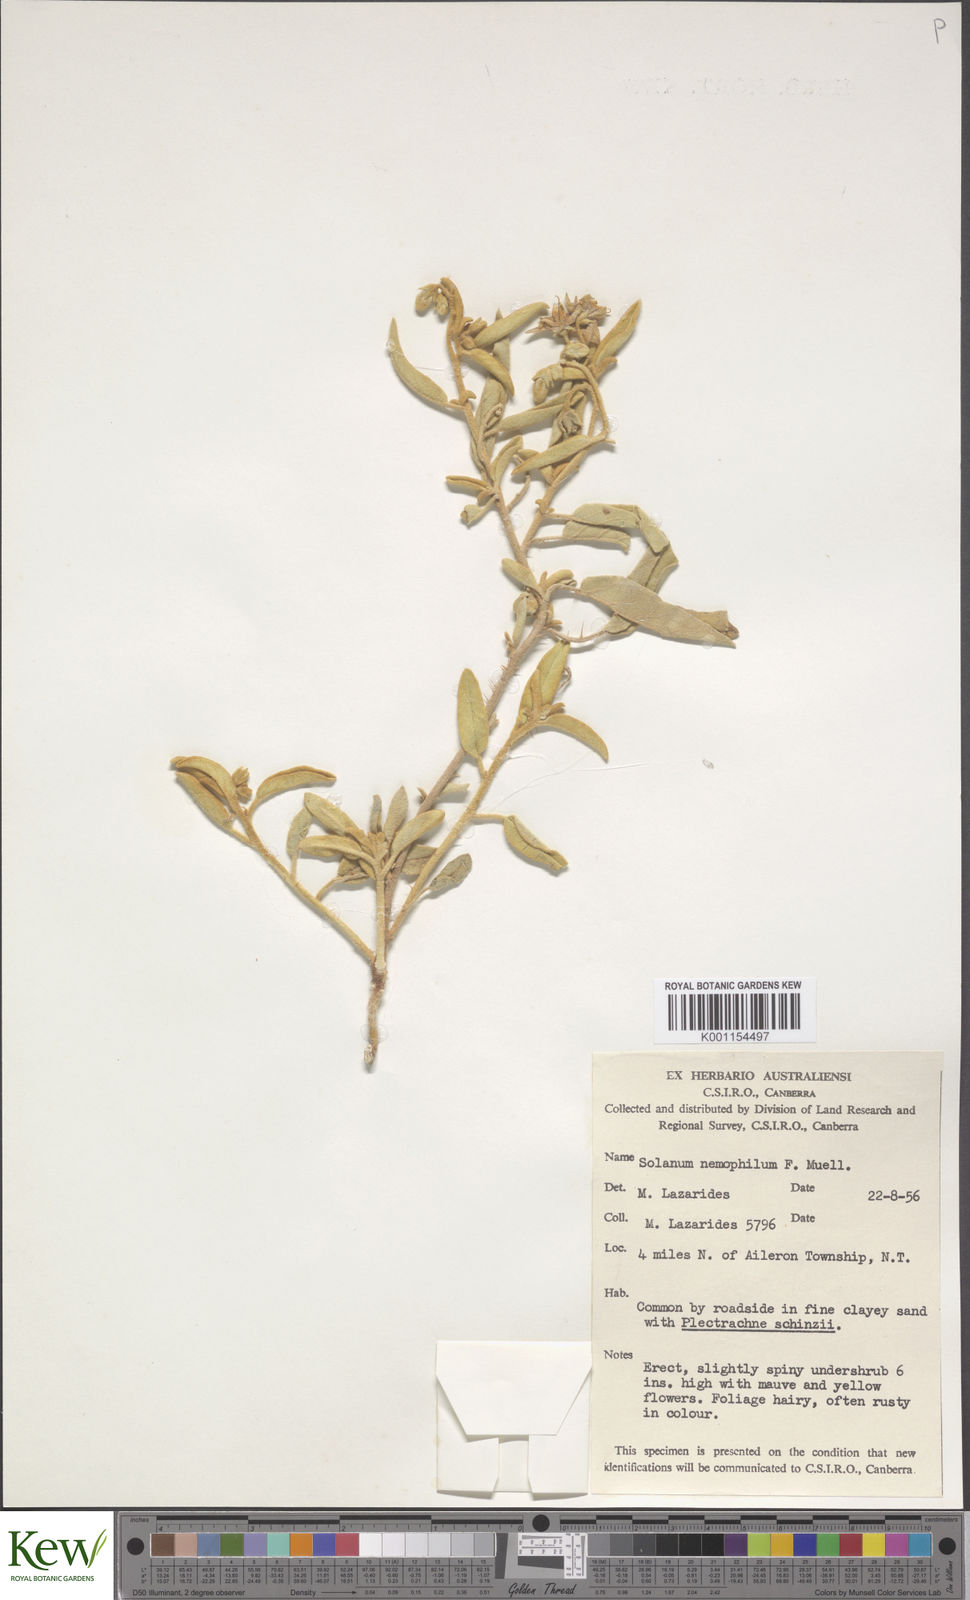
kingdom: Plantae
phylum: Tracheophyta
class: Magnoliopsida
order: Solanales
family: Solanaceae
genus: Solanum
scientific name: Solanum centrale
